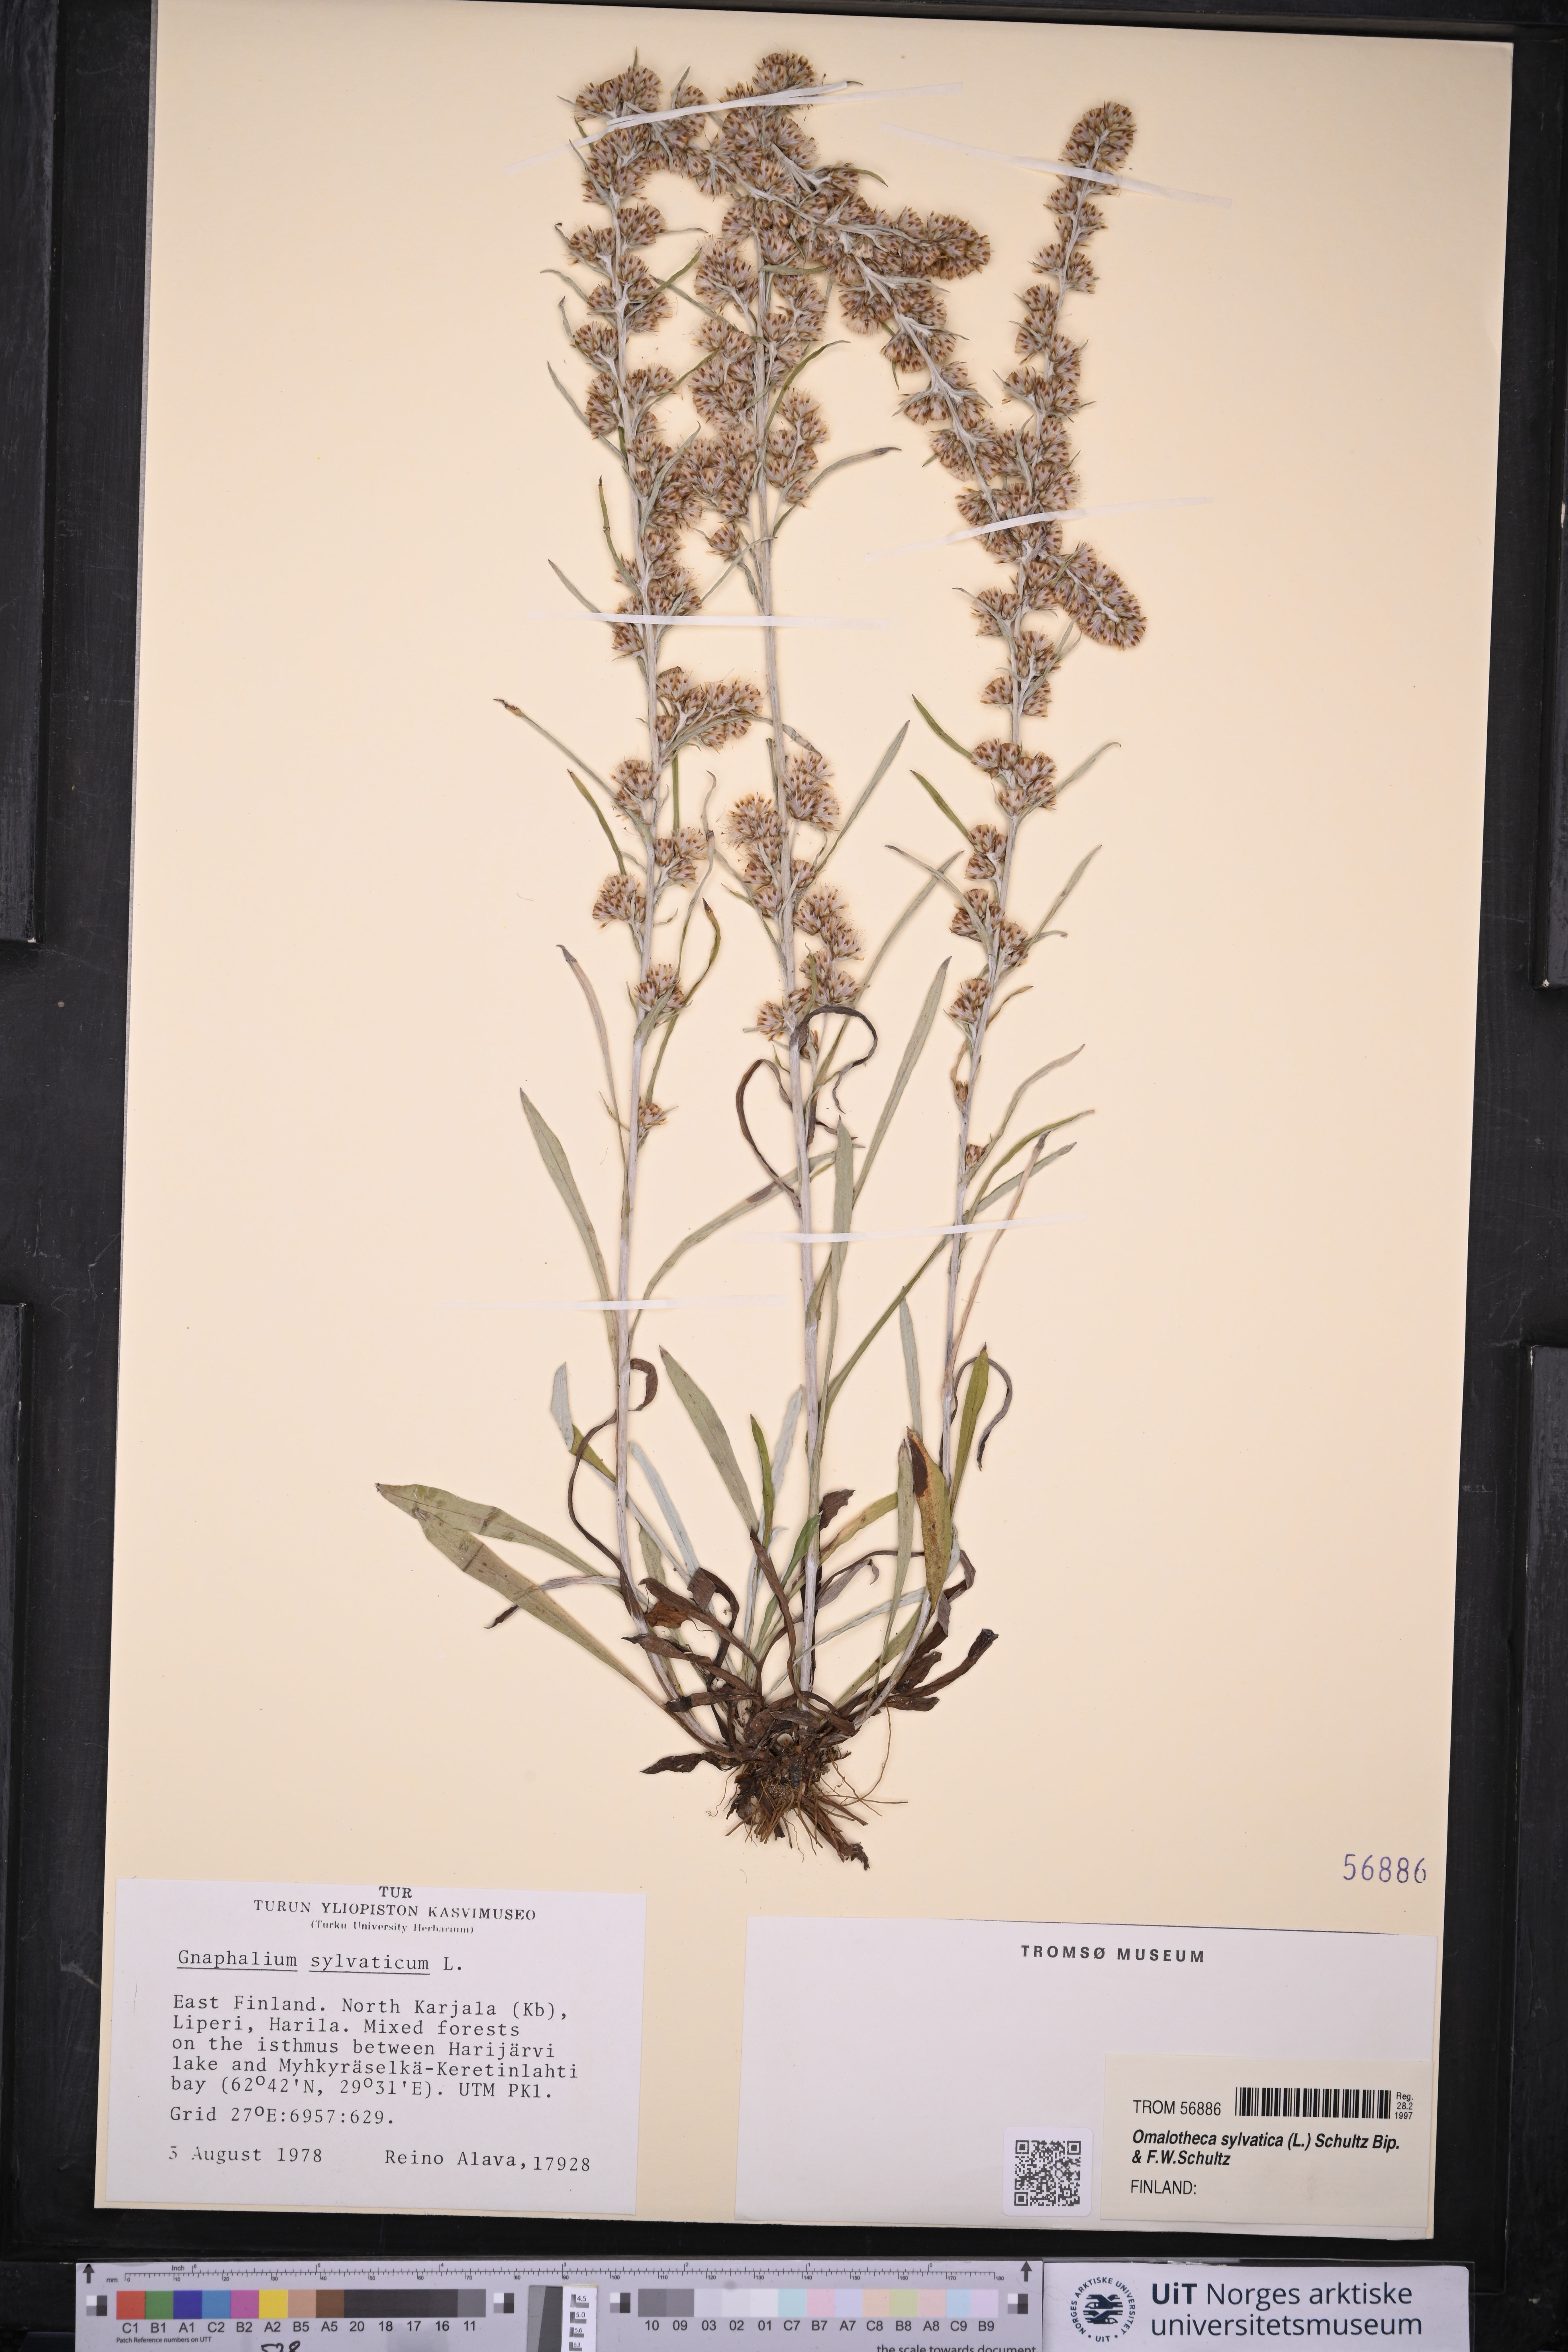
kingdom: Plantae
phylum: Tracheophyta
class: Magnoliopsida
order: Asterales
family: Asteraceae
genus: Omalotheca
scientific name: Omalotheca sylvatica
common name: Heath cudweed
